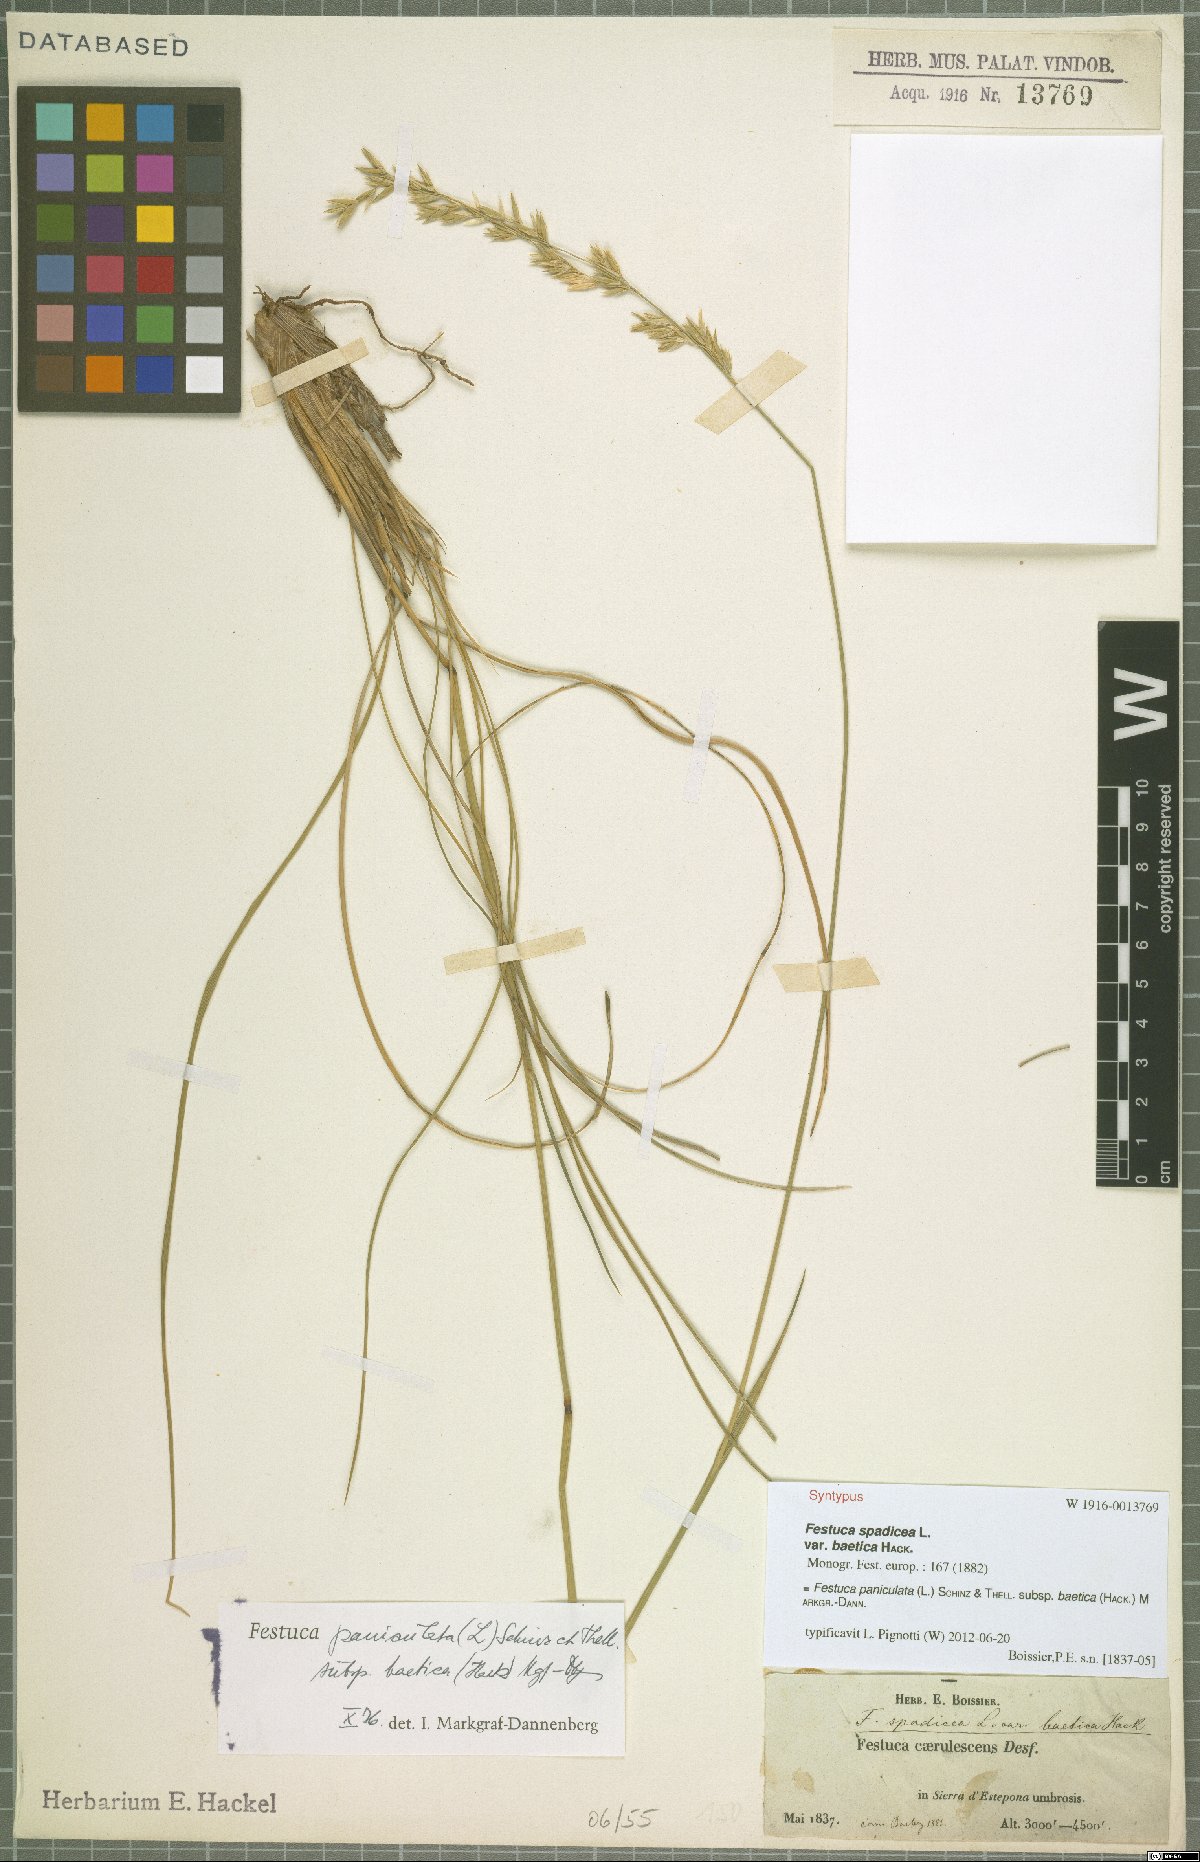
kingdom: Plantae
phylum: Tracheophyta
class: Liliopsida
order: Poales
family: Poaceae
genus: Patzkea
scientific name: Patzkea paniculata
